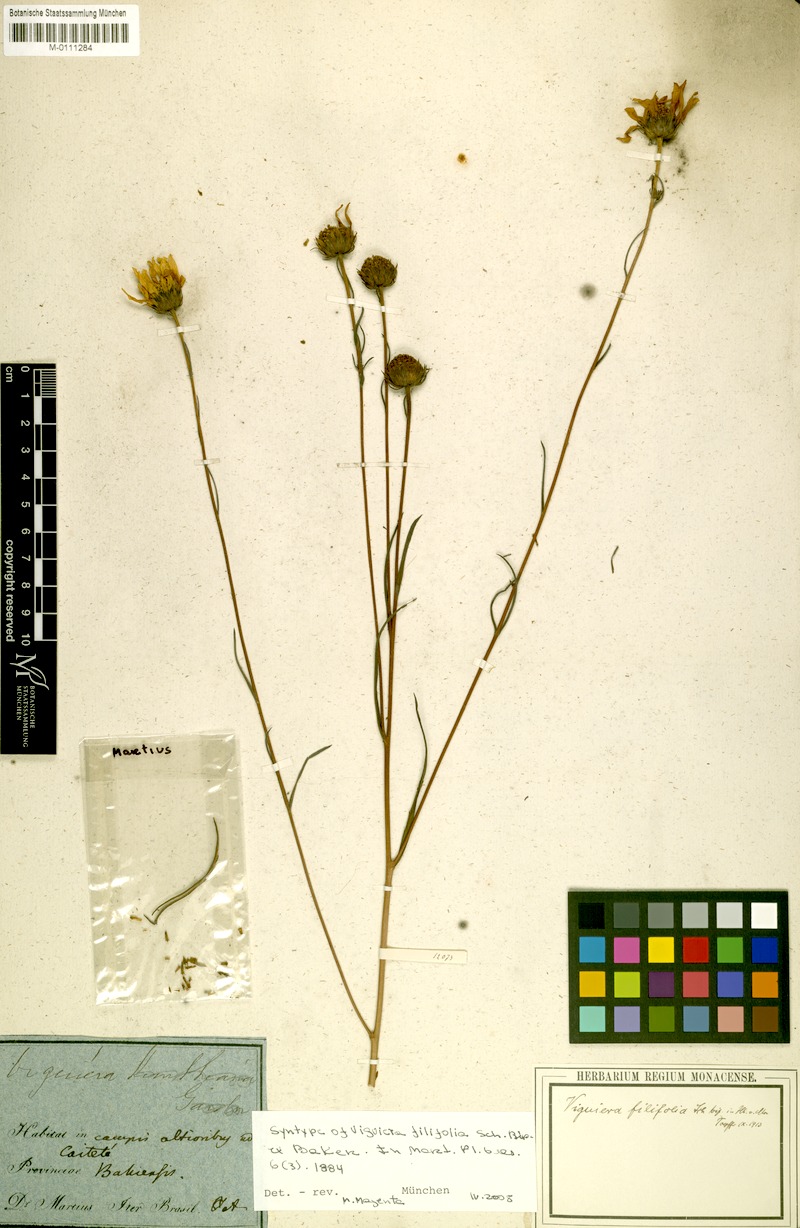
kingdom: Plantae
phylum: Tracheophyta
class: Magnoliopsida
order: Asterales
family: Asteraceae
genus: Aldama
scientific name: Aldama filifolia
